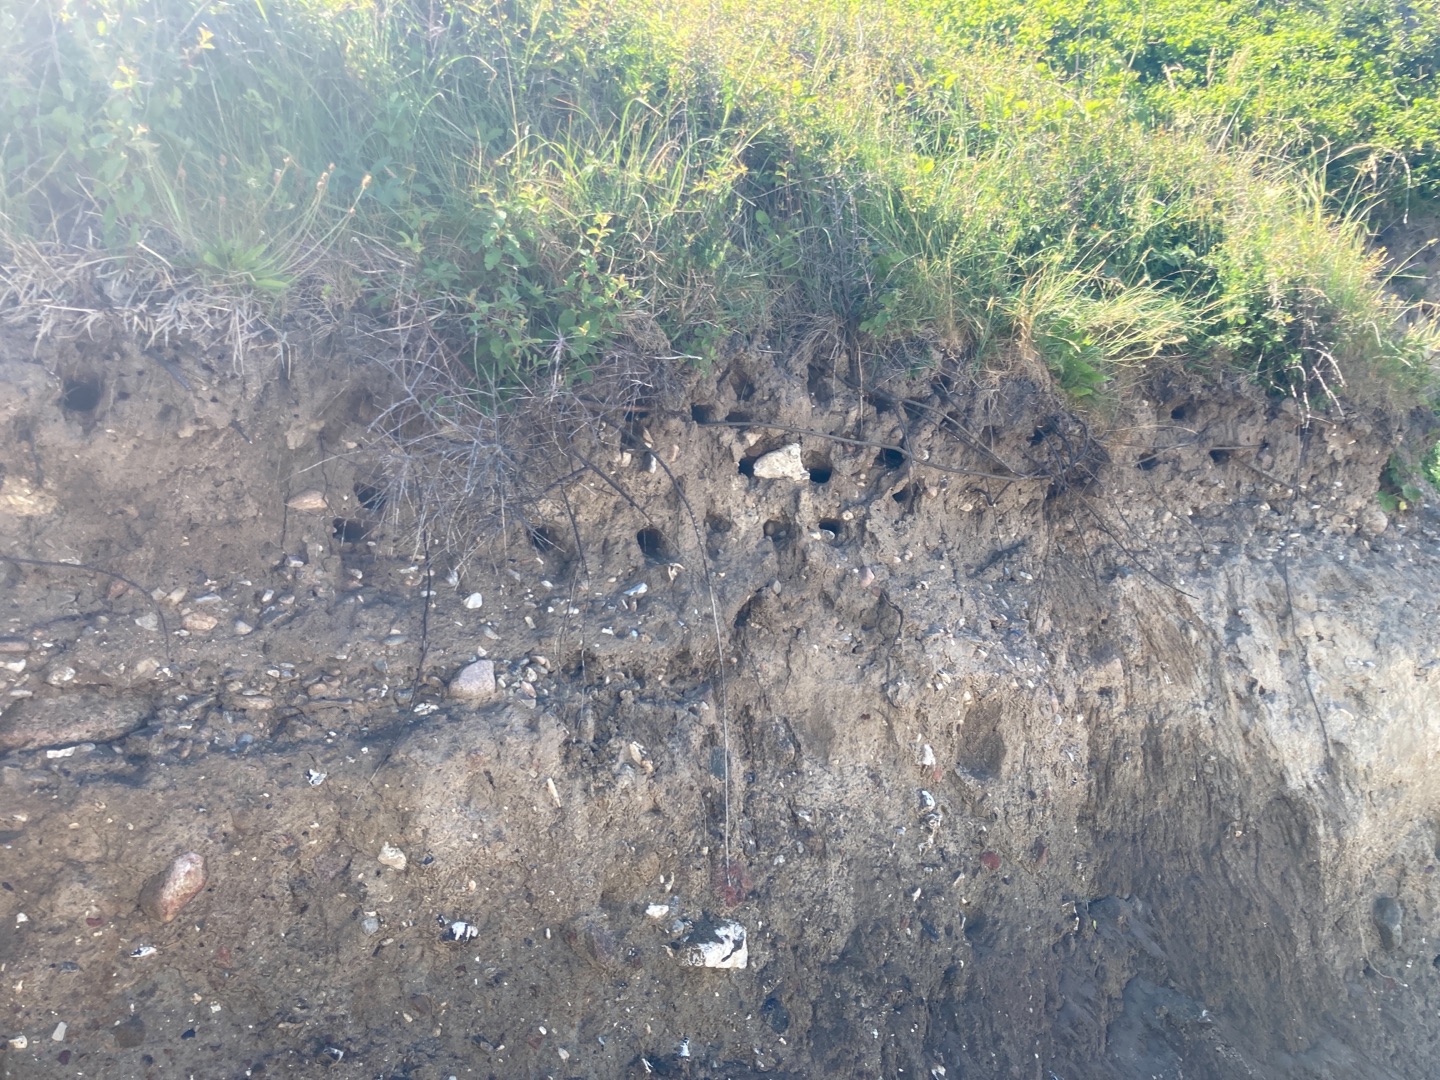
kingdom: Animalia
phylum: Chordata
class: Aves
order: Passeriformes
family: Hirundinidae
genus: Riparia
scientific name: Riparia riparia
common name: Digesvale
